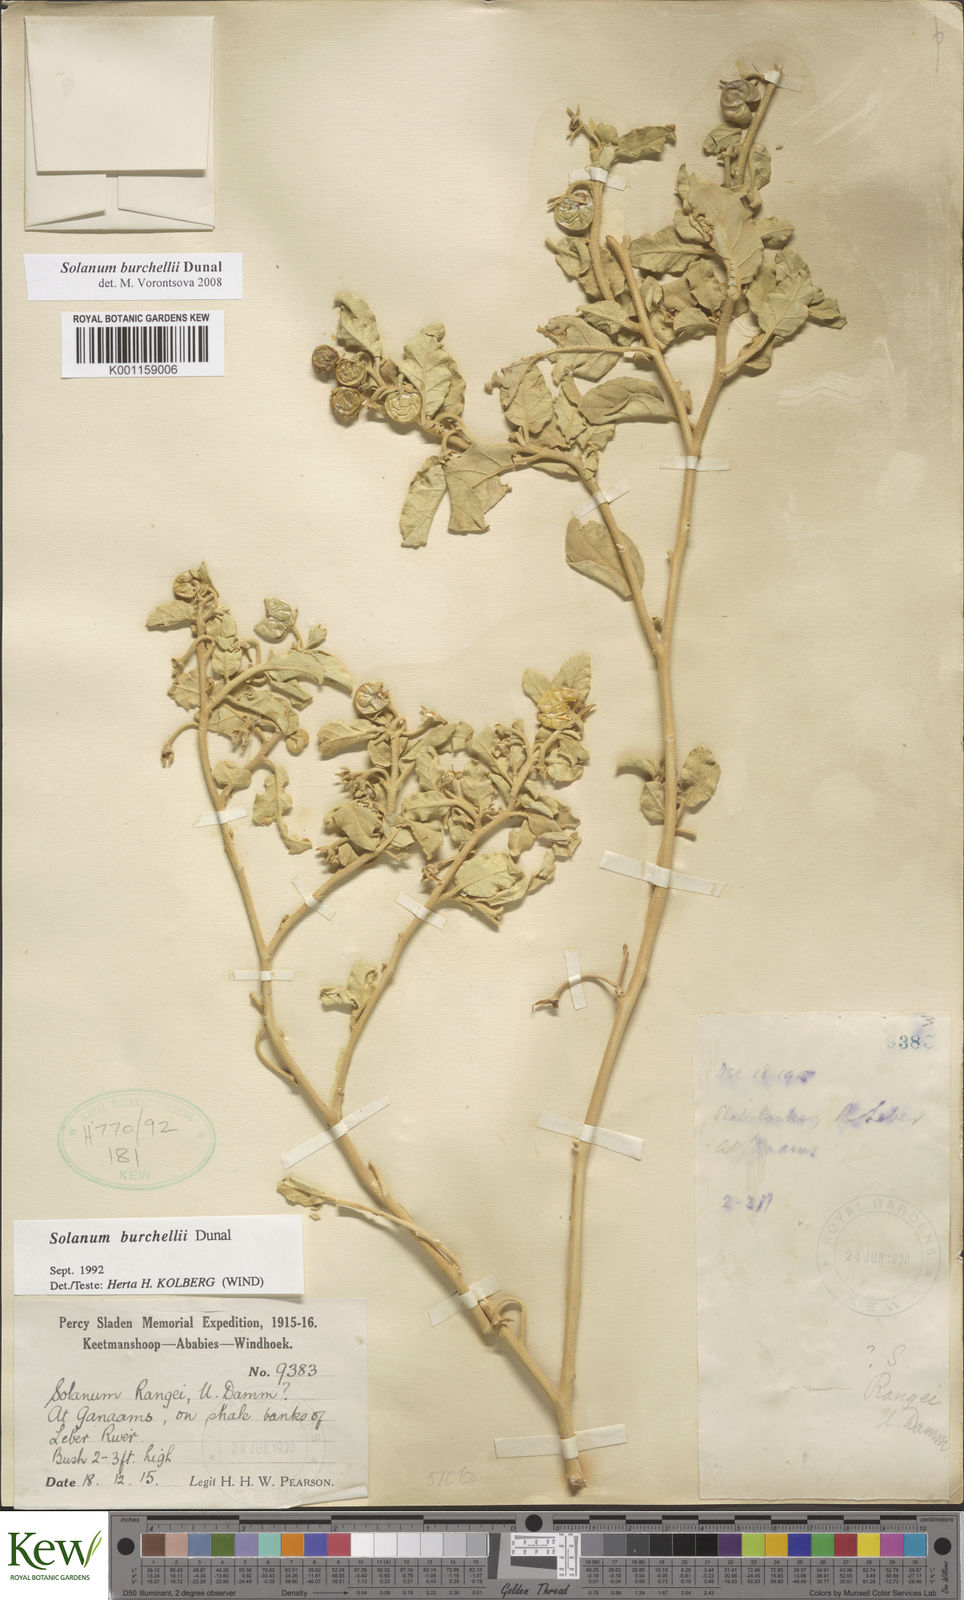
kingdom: Plantae
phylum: Tracheophyta
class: Magnoliopsida
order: Solanales
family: Solanaceae
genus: Solanum
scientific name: Solanum burchellii
